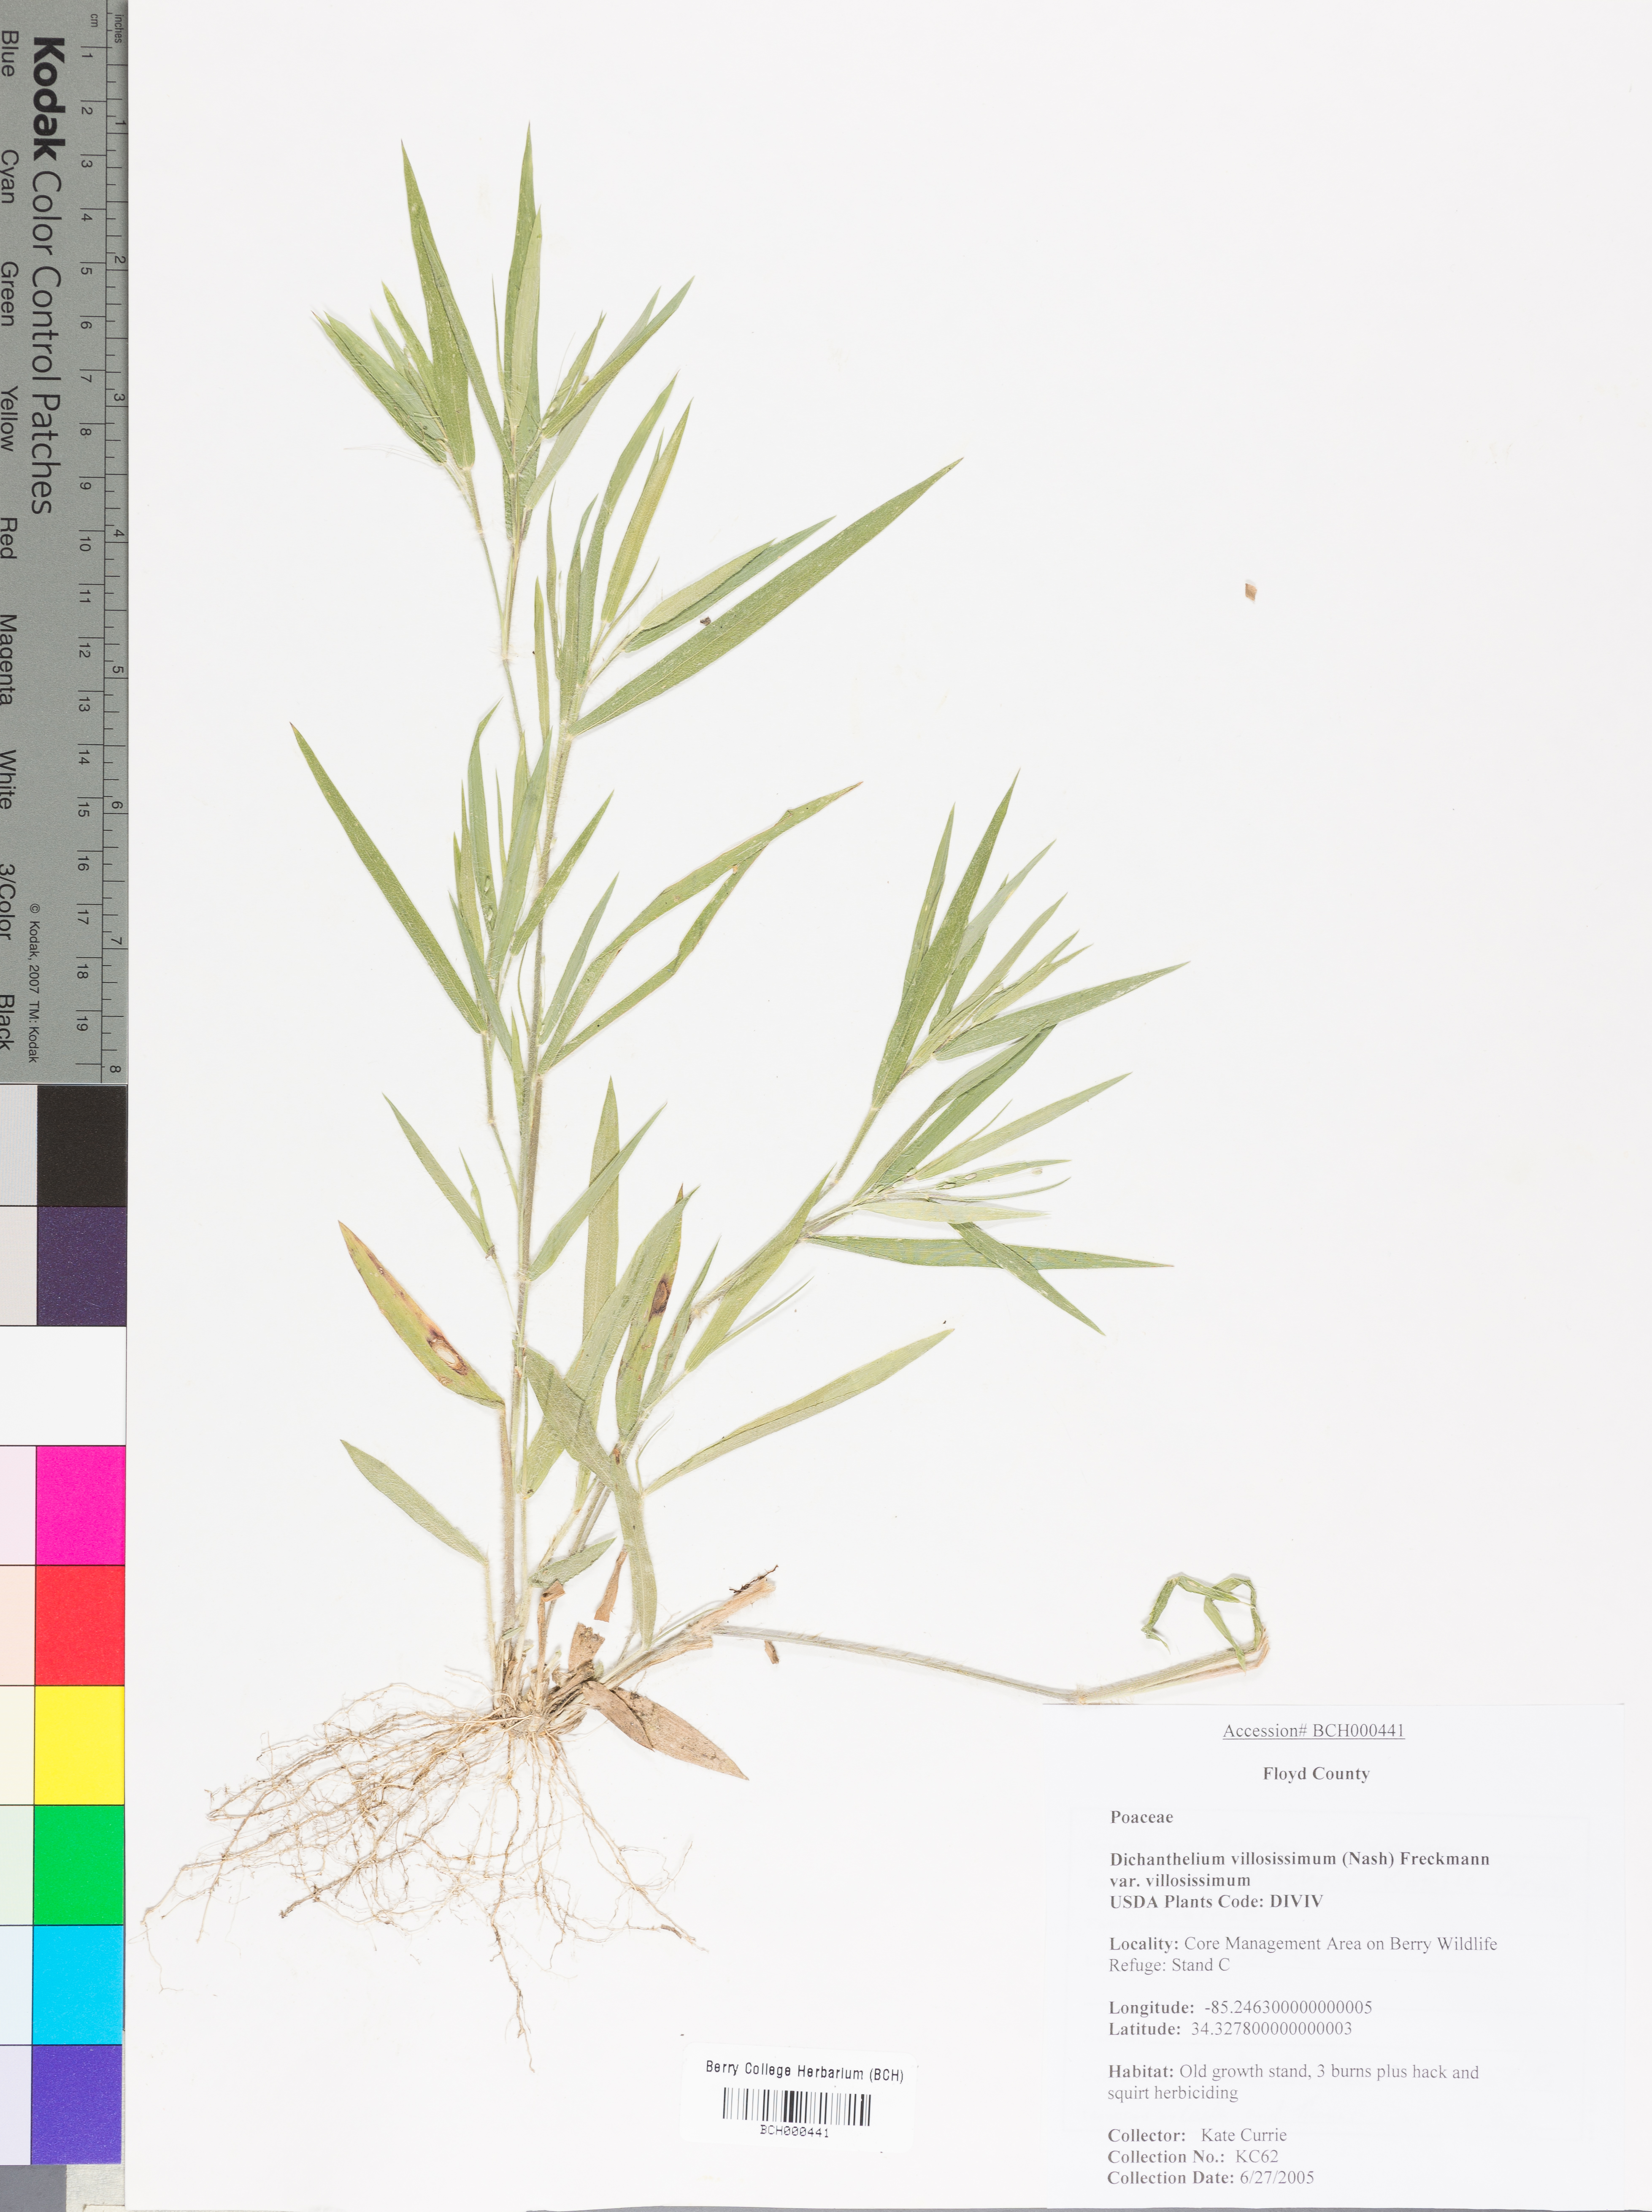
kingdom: Plantae
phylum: Tracheophyta
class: Liliopsida
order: Poales
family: Poaceae
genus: Dichanthelium
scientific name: Dichanthelium acuminatum
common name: Hairy panic grass
